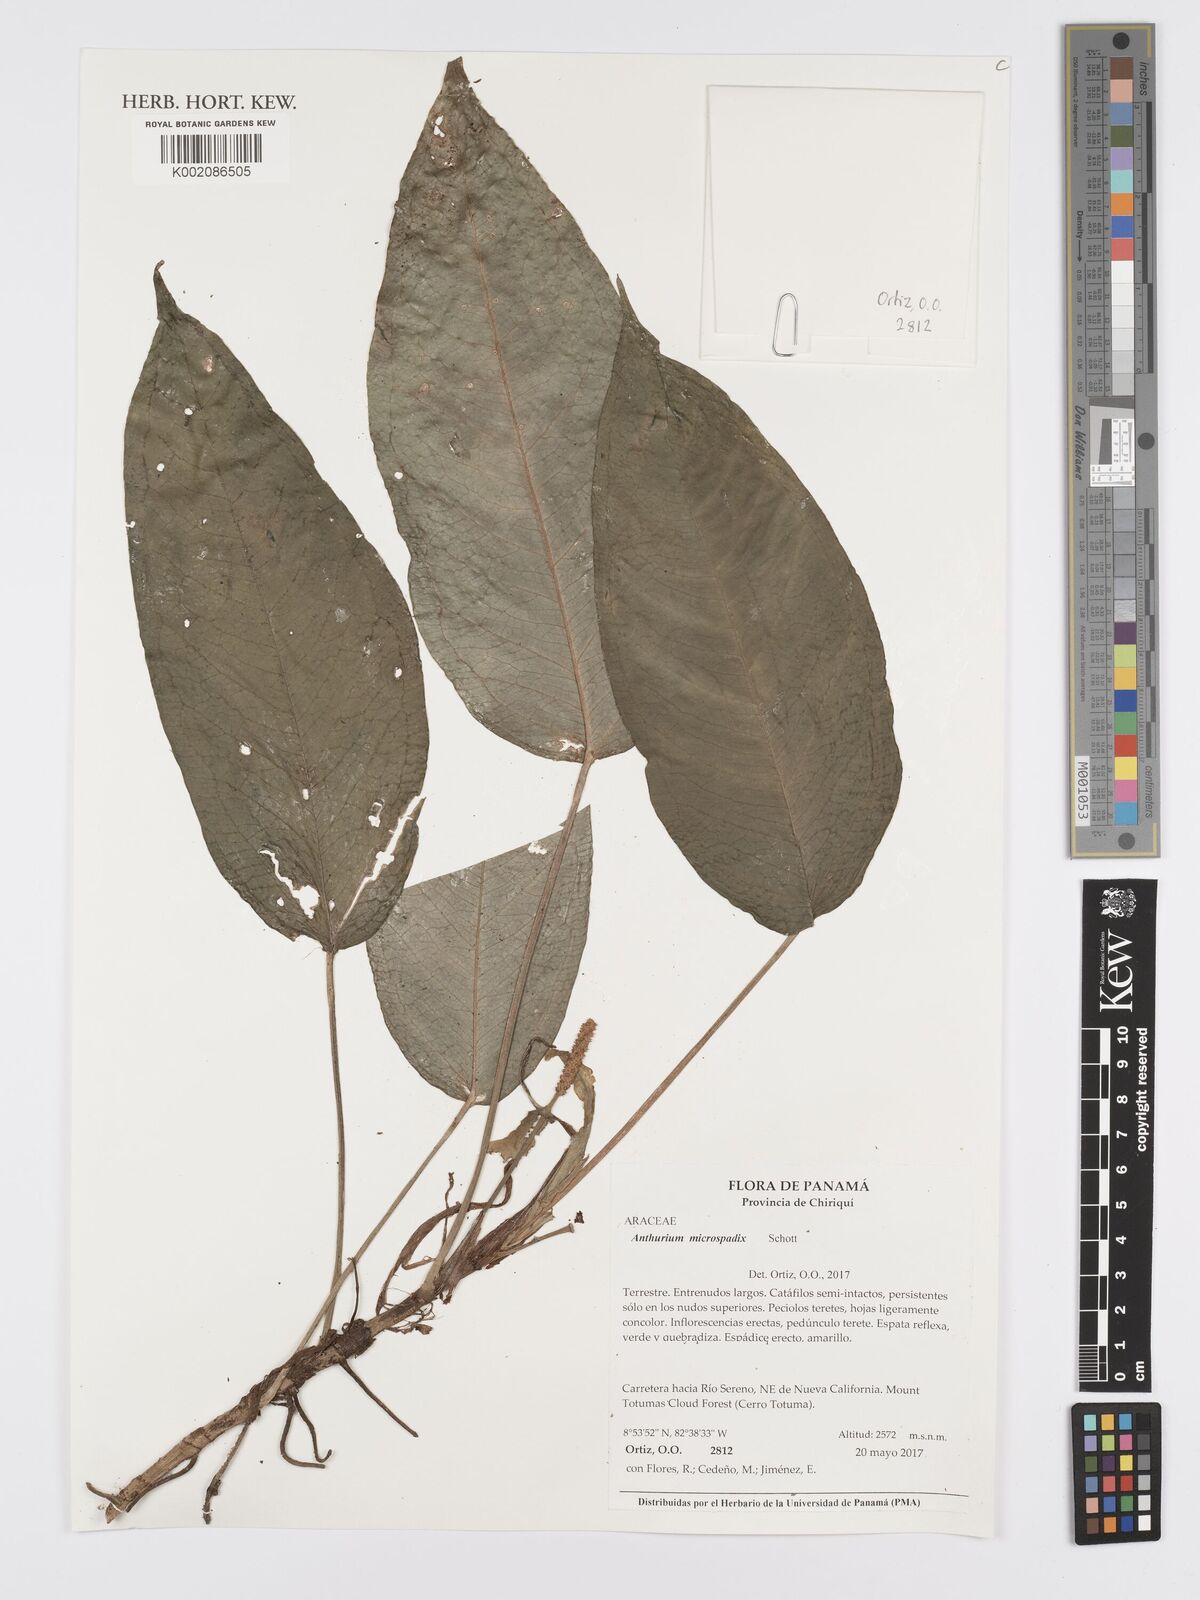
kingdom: Plantae
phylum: Tracheophyta
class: Liliopsida
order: Alismatales
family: Araceae
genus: Anthurium
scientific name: Anthurium microspadix
